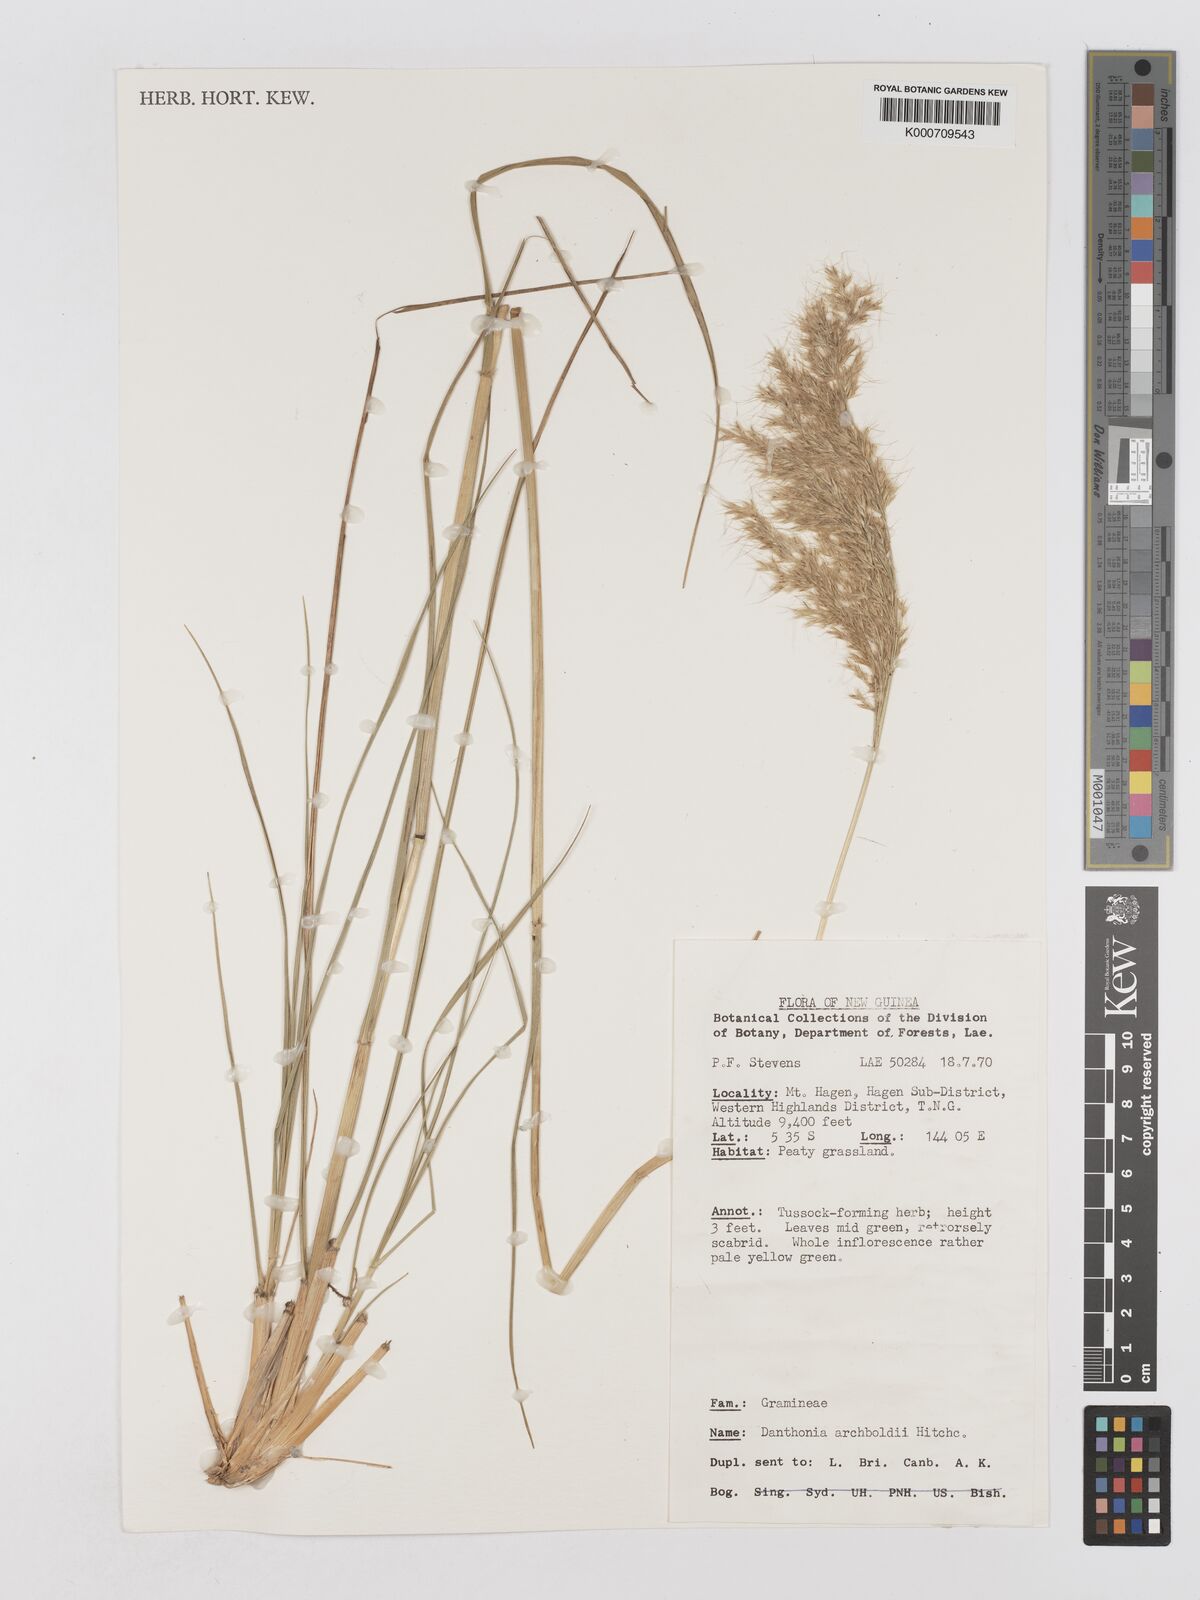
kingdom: Plantae
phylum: Tracheophyta
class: Liliopsida
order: Poales
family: Poaceae
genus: Chimaerochloa
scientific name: Chimaerochloa archboldii
